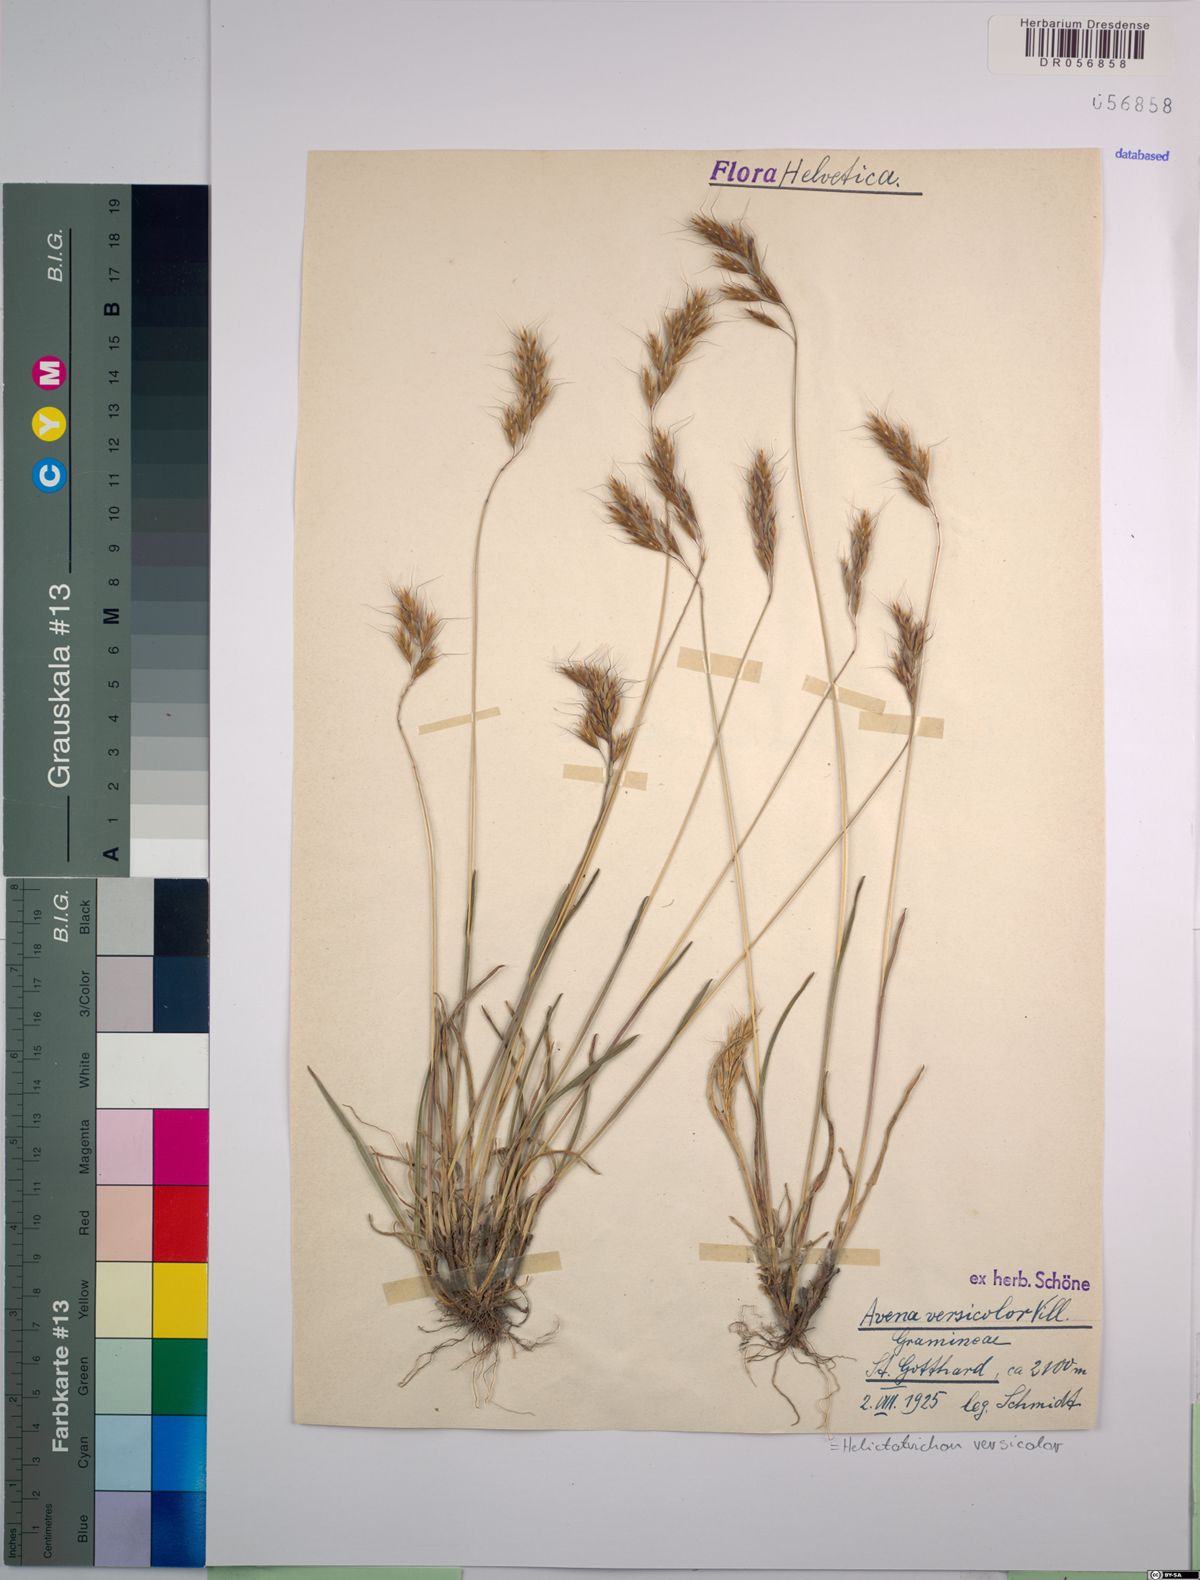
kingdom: Plantae
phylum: Tracheophyta
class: Liliopsida
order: Poales
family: Poaceae
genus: Helictochloa
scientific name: Helictochloa versicolor
